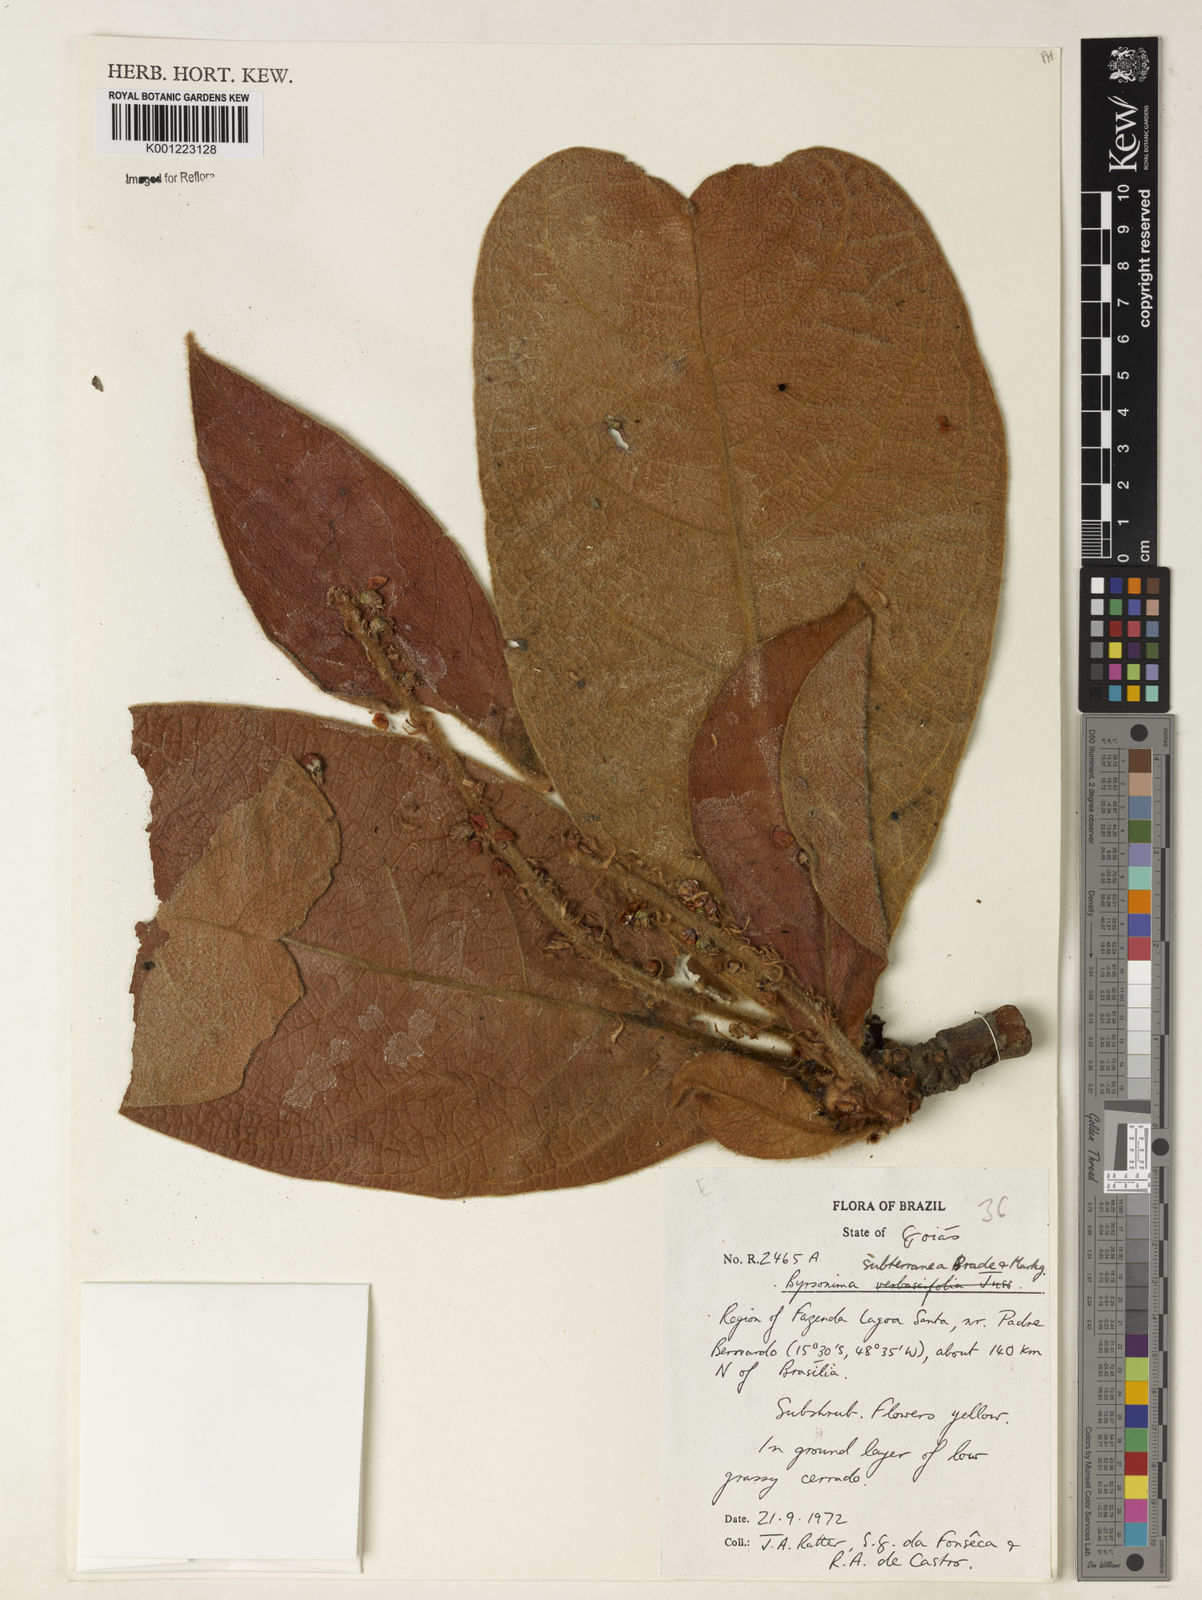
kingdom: Plantae
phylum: Tracheophyta
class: Magnoliopsida
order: Malpighiales
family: Malpighiaceae
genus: Byrsonima
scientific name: Byrsonima subterranea
